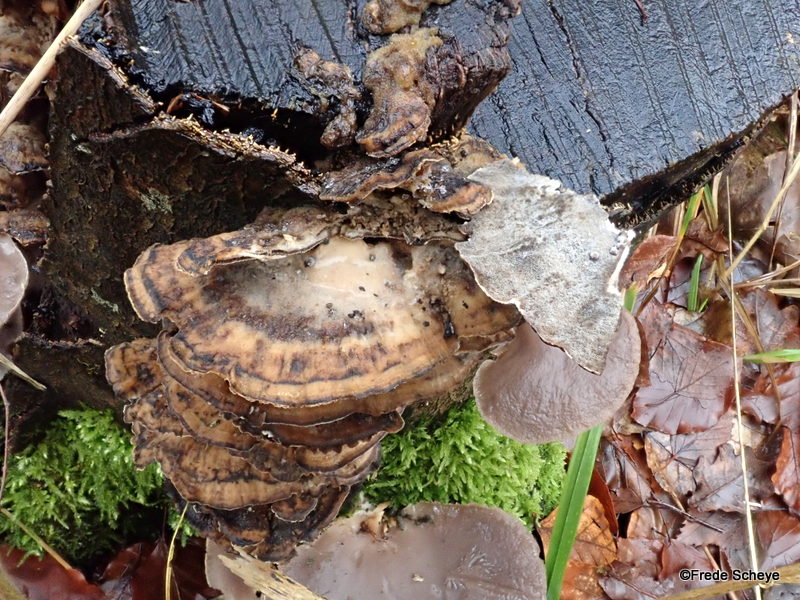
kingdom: Fungi
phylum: Basidiomycota
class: Agaricomycetes
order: Polyporales
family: Phanerochaetaceae
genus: Bjerkandera
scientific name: Bjerkandera adusta
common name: sveden sodporesvamp
